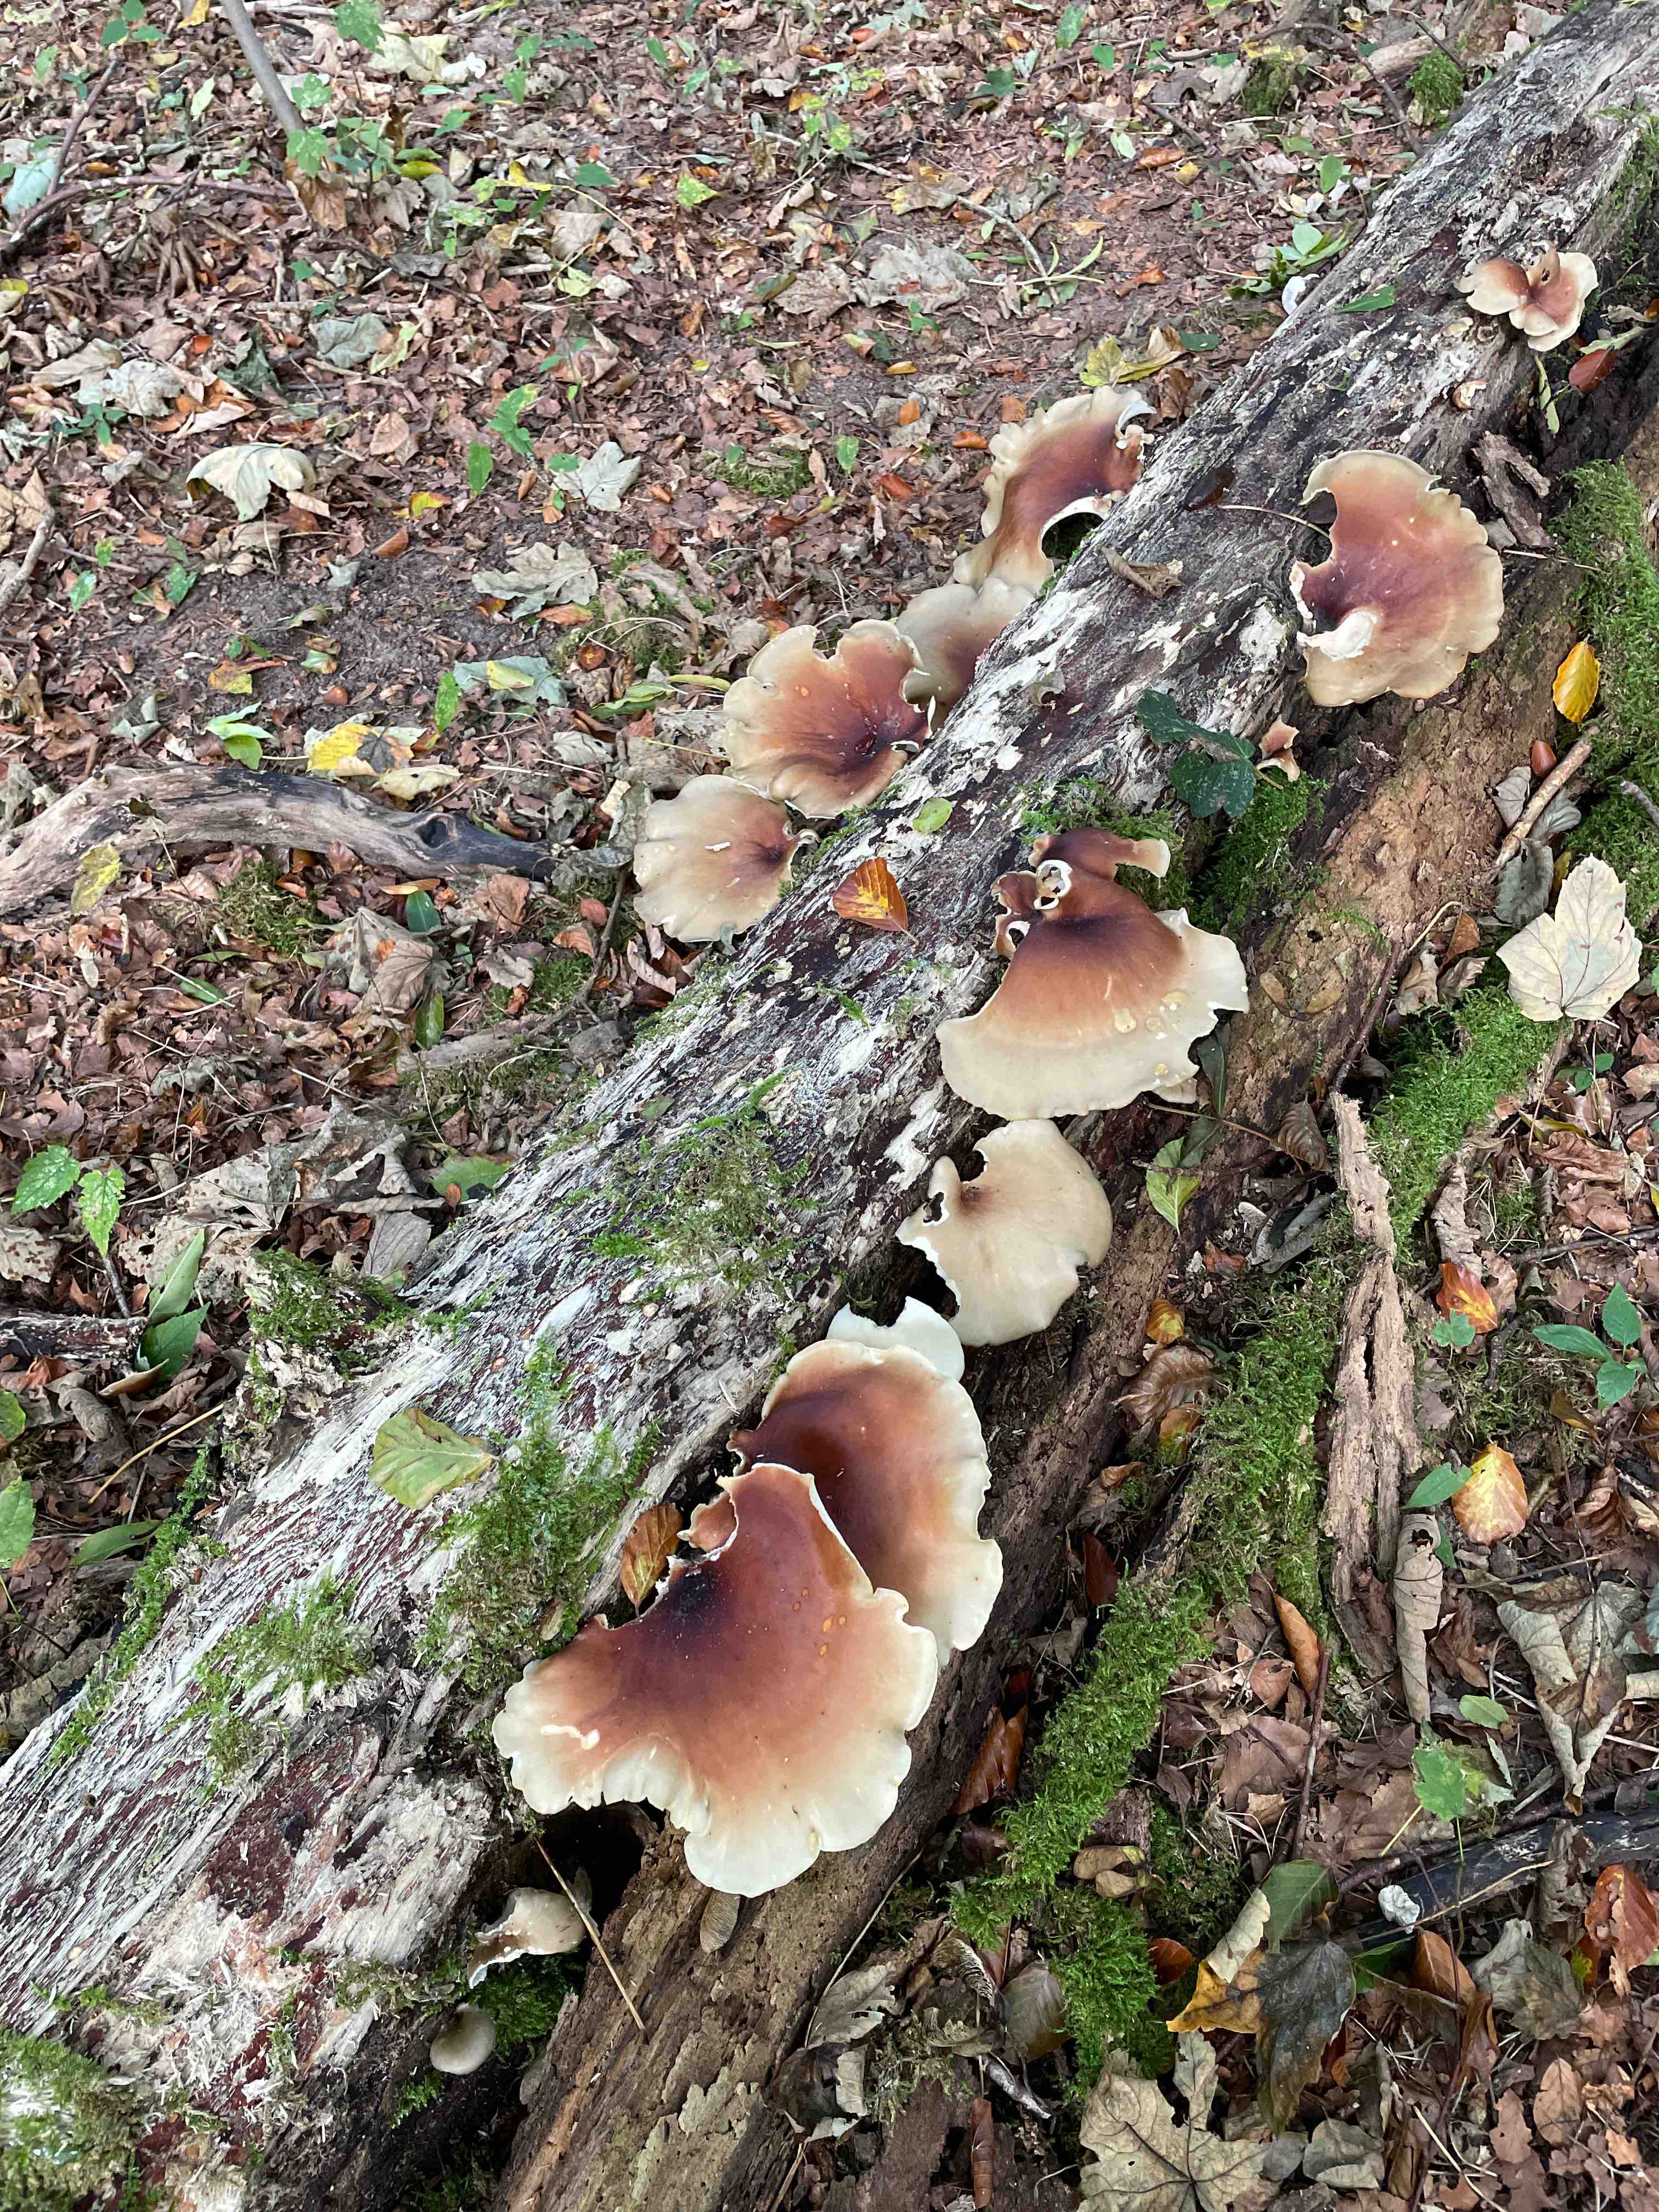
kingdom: Fungi
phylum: Basidiomycota
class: Agaricomycetes
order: Polyporales
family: Polyporaceae
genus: Picipes
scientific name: Picipes badius
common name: kastaniebrun stilkporesvamp
